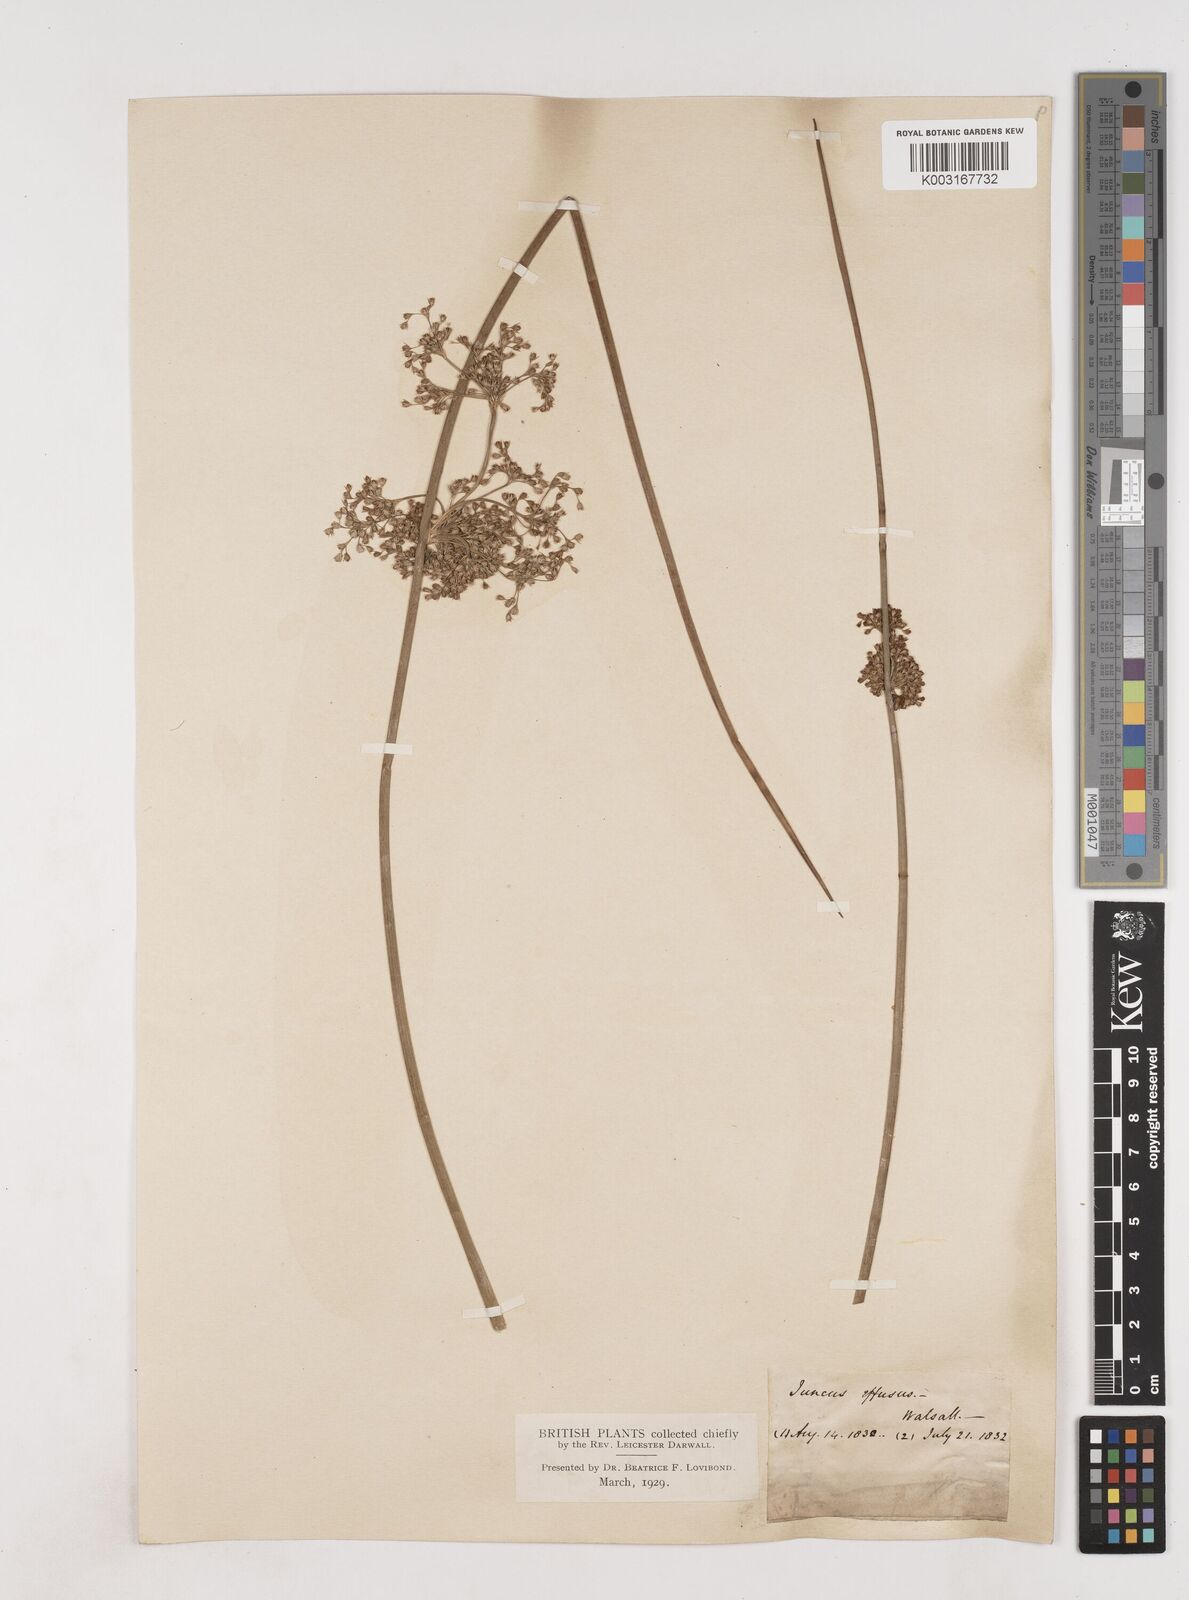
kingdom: Plantae
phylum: Tracheophyta
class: Liliopsida
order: Poales
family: Juncaceae
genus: Juncus
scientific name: Juncus effusus
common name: Soft rush
